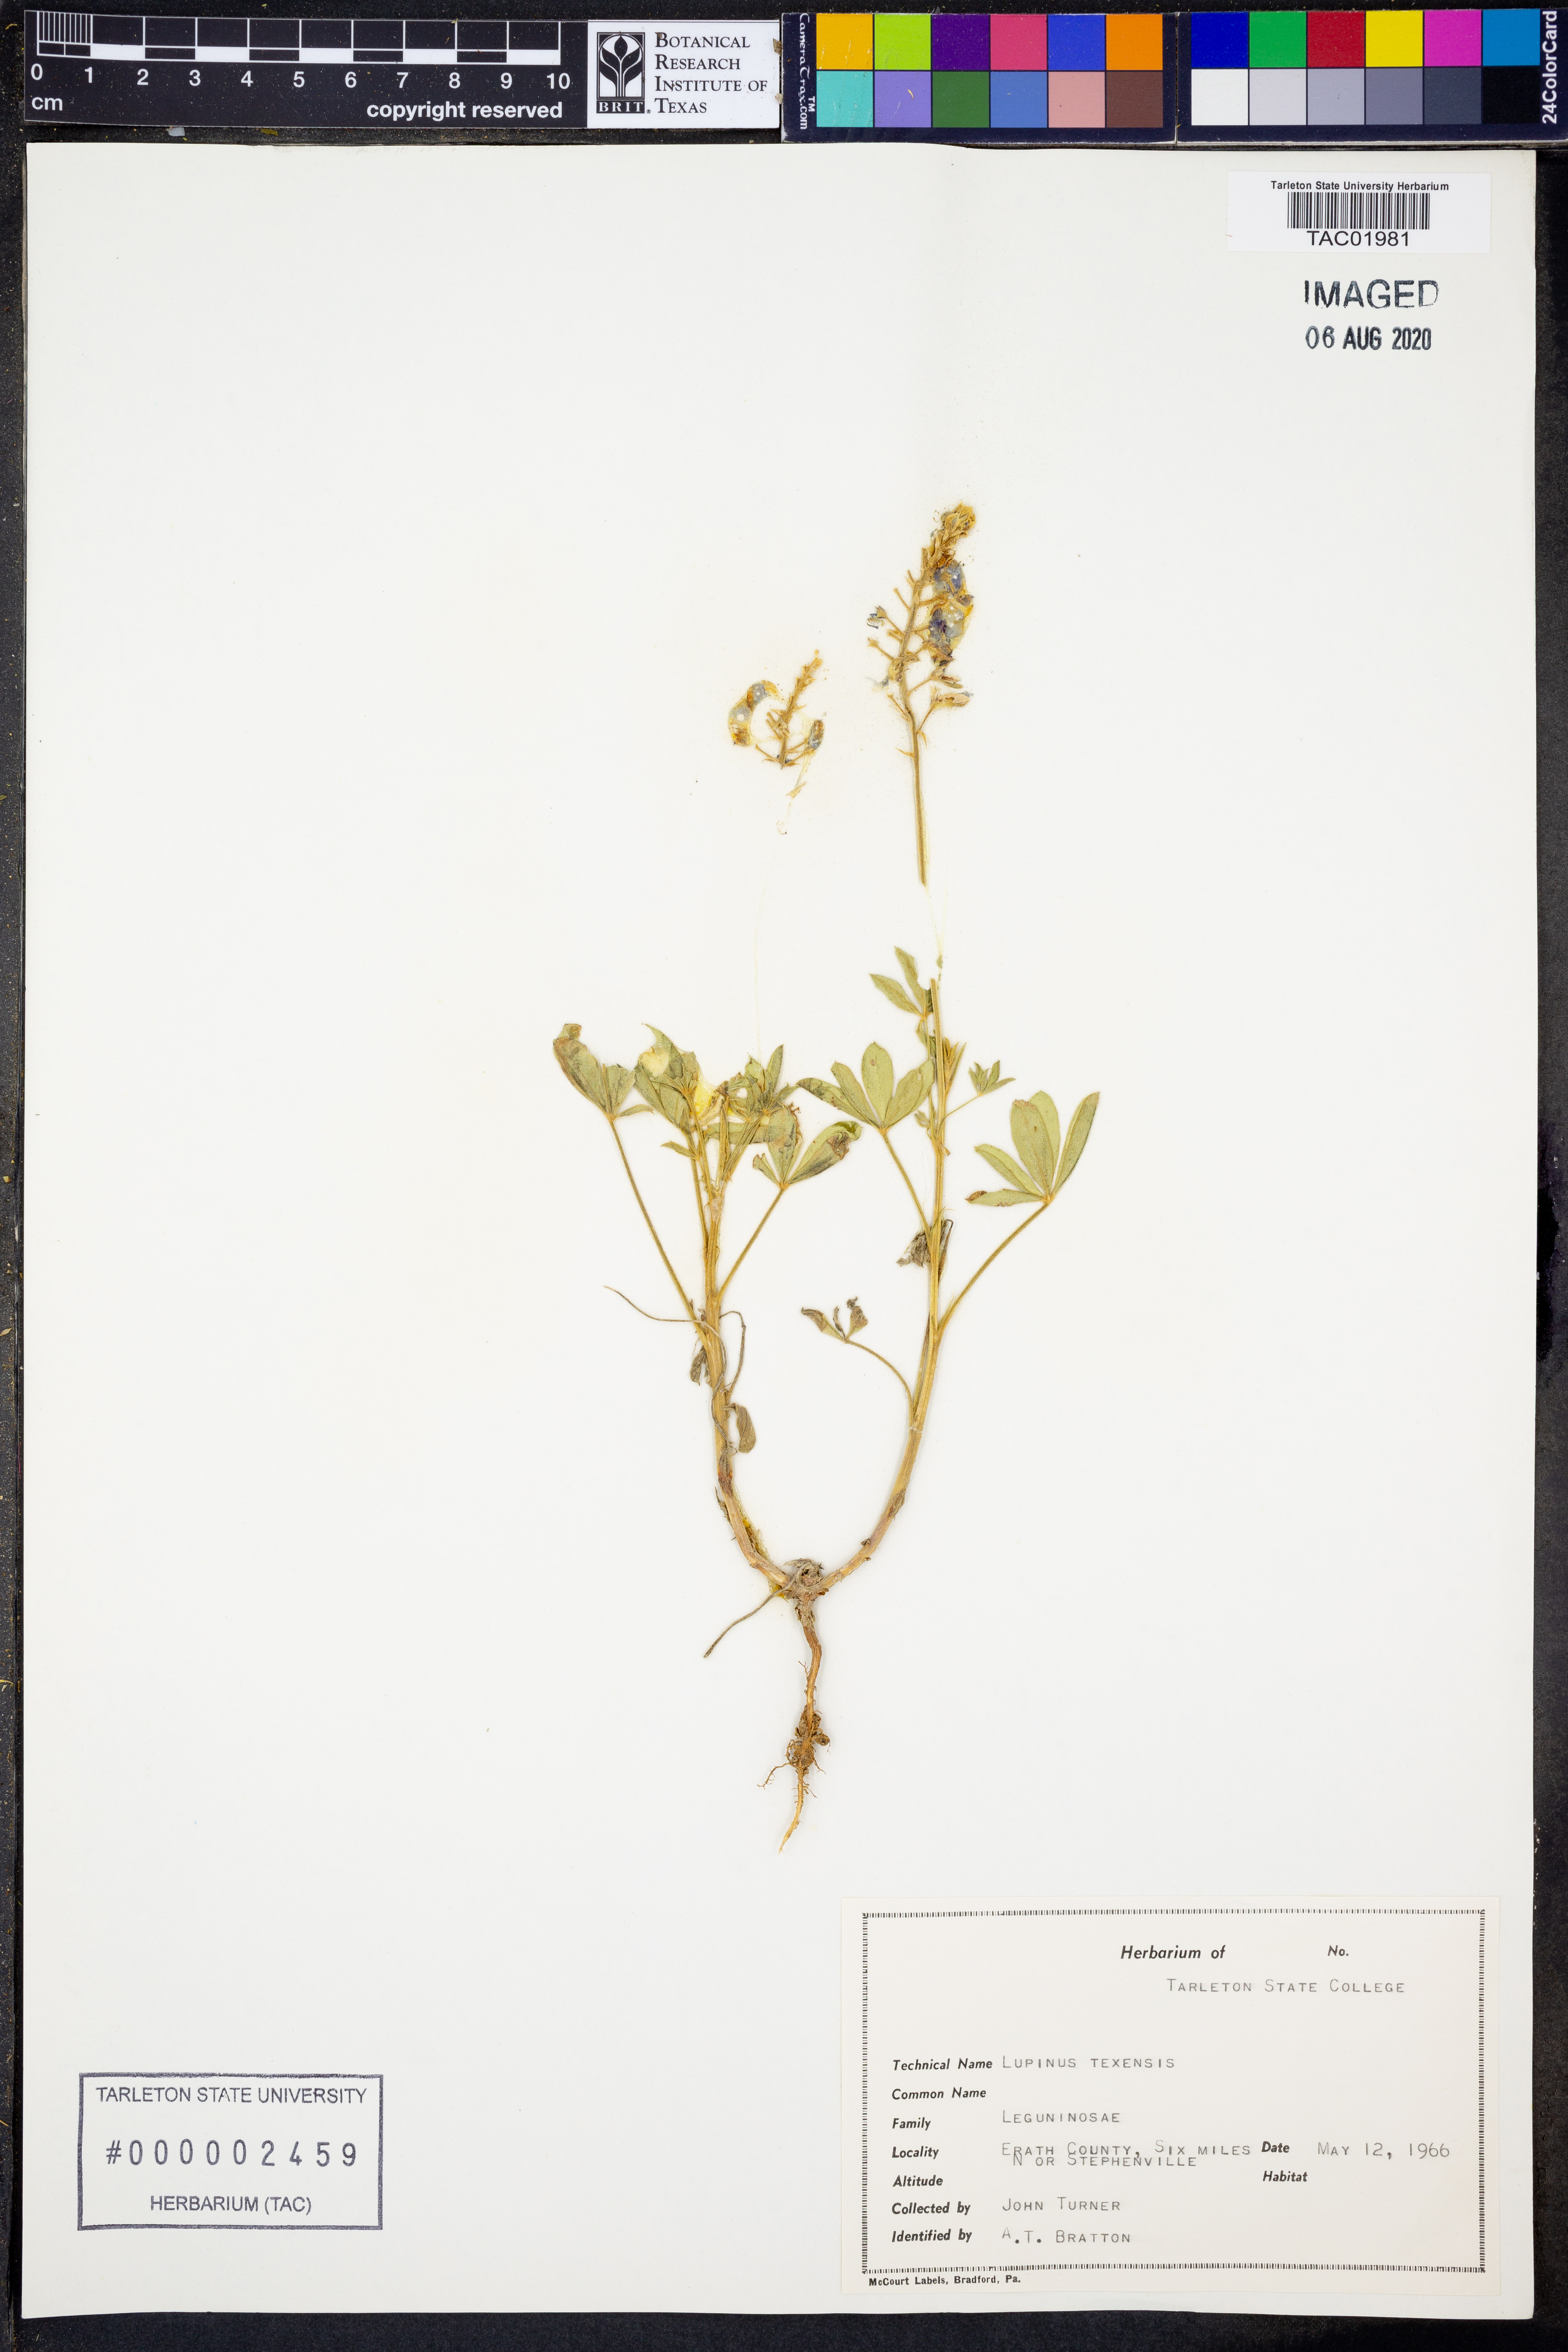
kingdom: Plantae
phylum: Tracheophyta
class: Magnoliopsida
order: Fabales
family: Fabaceae
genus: Lupinus
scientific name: Lupinus texensis
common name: Texas bluebonnet
